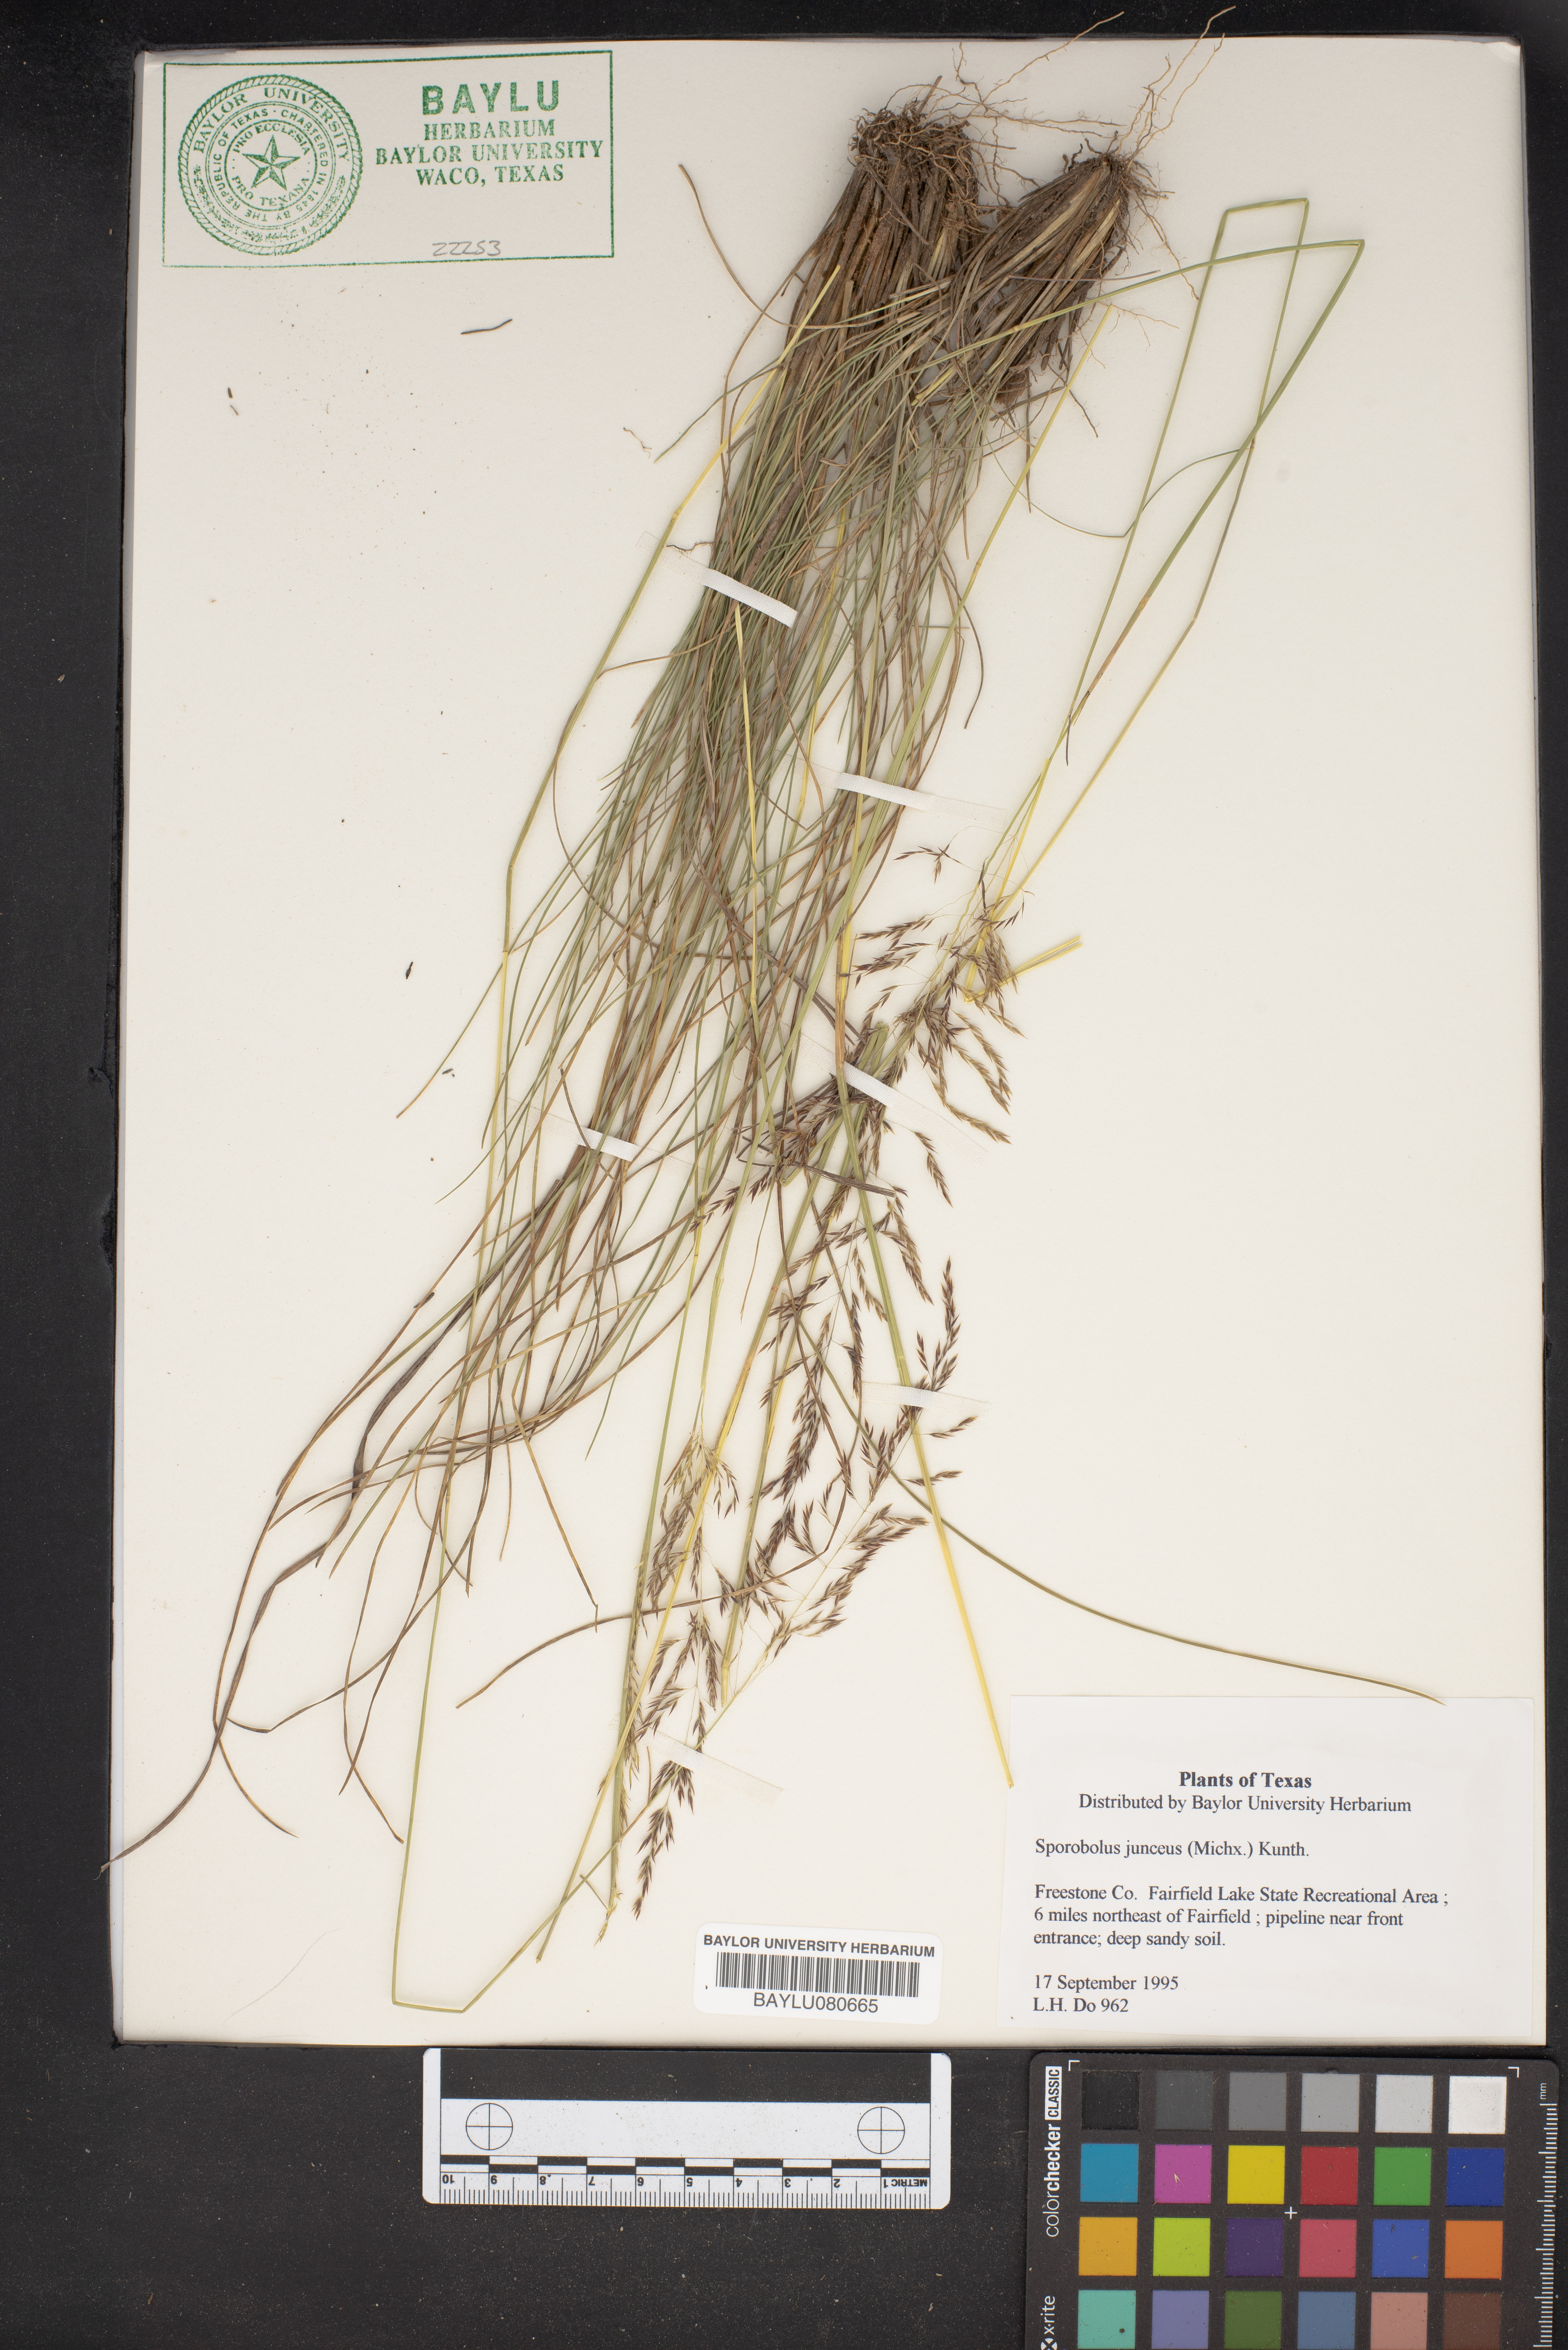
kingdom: Plantae
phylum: Tracheophyta
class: Liliopsida
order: Poales
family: Poaceae
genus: Sporobolus
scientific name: Sporobolus junceus
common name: Lizard grass
